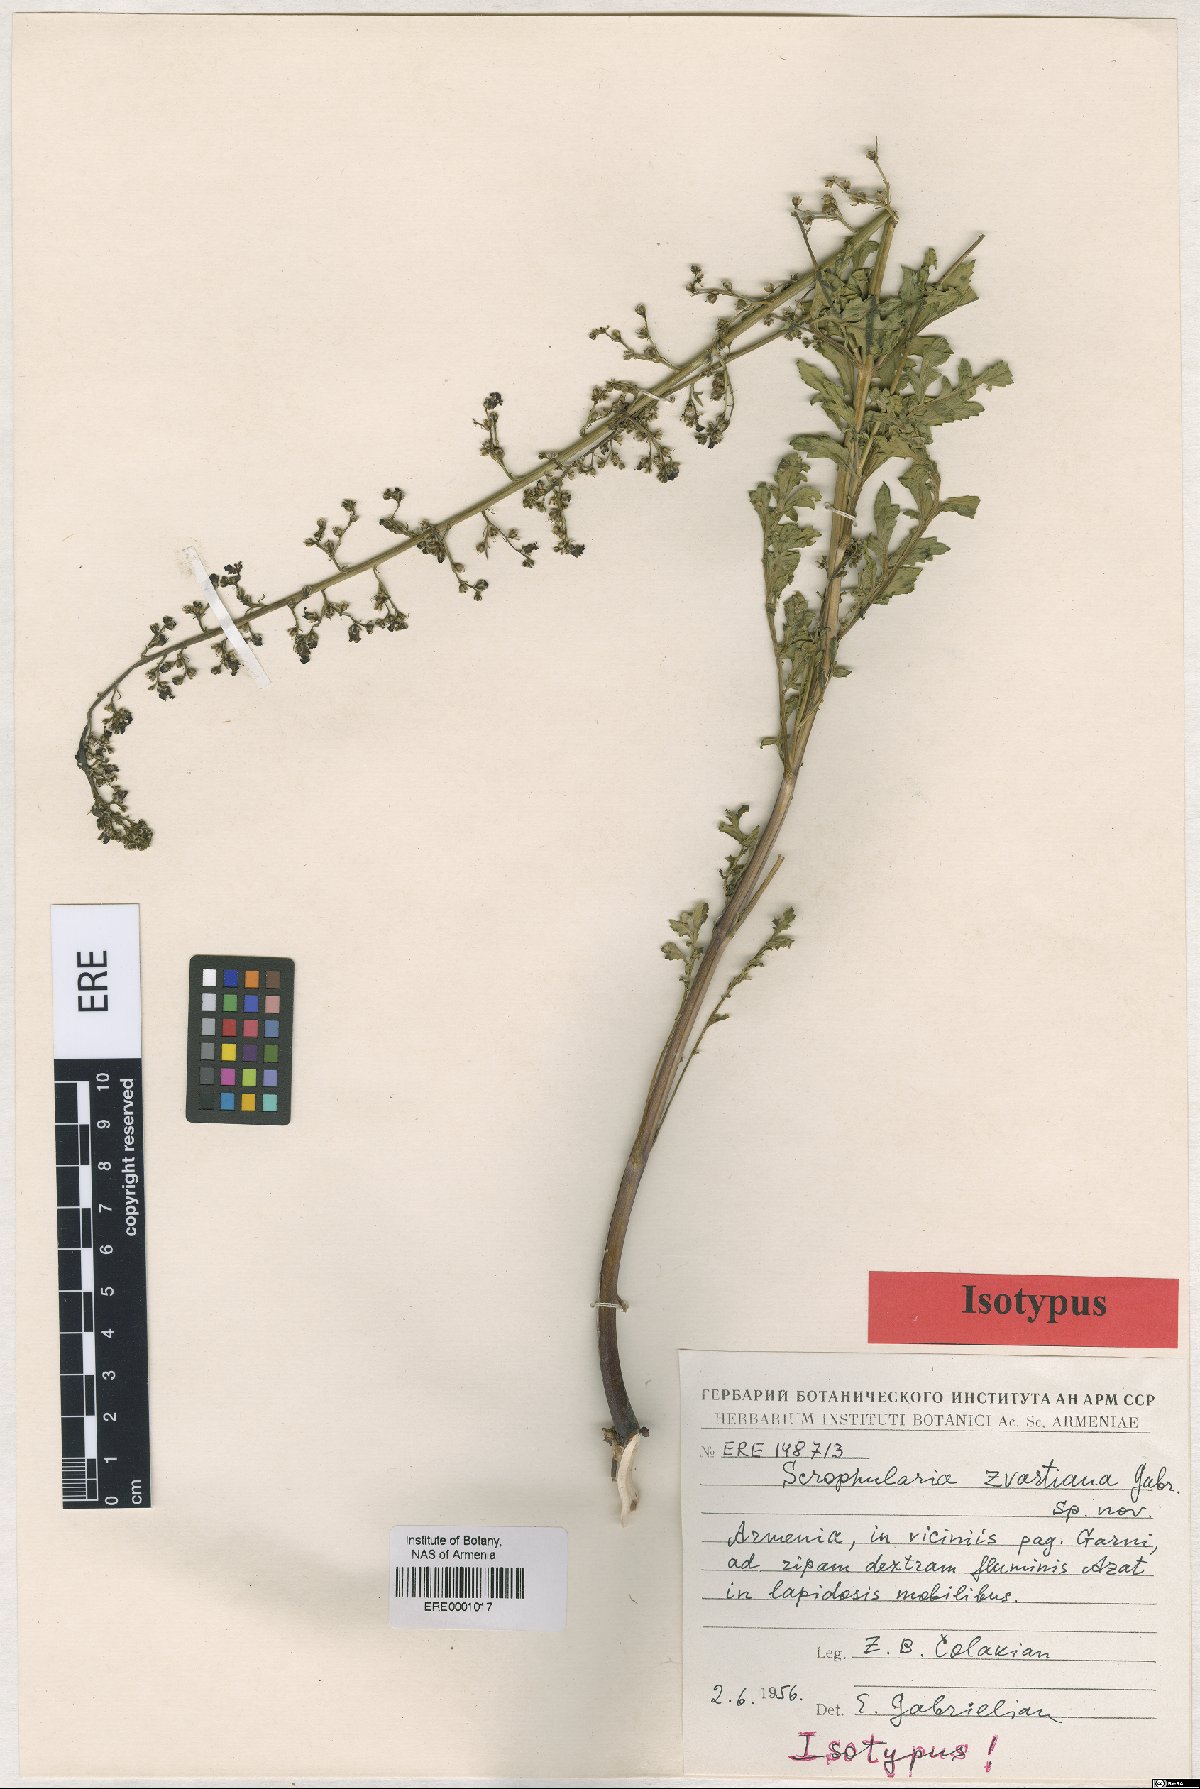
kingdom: Plantae
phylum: Tracheophyta
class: Magnoliopsida
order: Lamiales
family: Scrophulariaceae
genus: Scrophularia
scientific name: Scrophularia zvartiana
